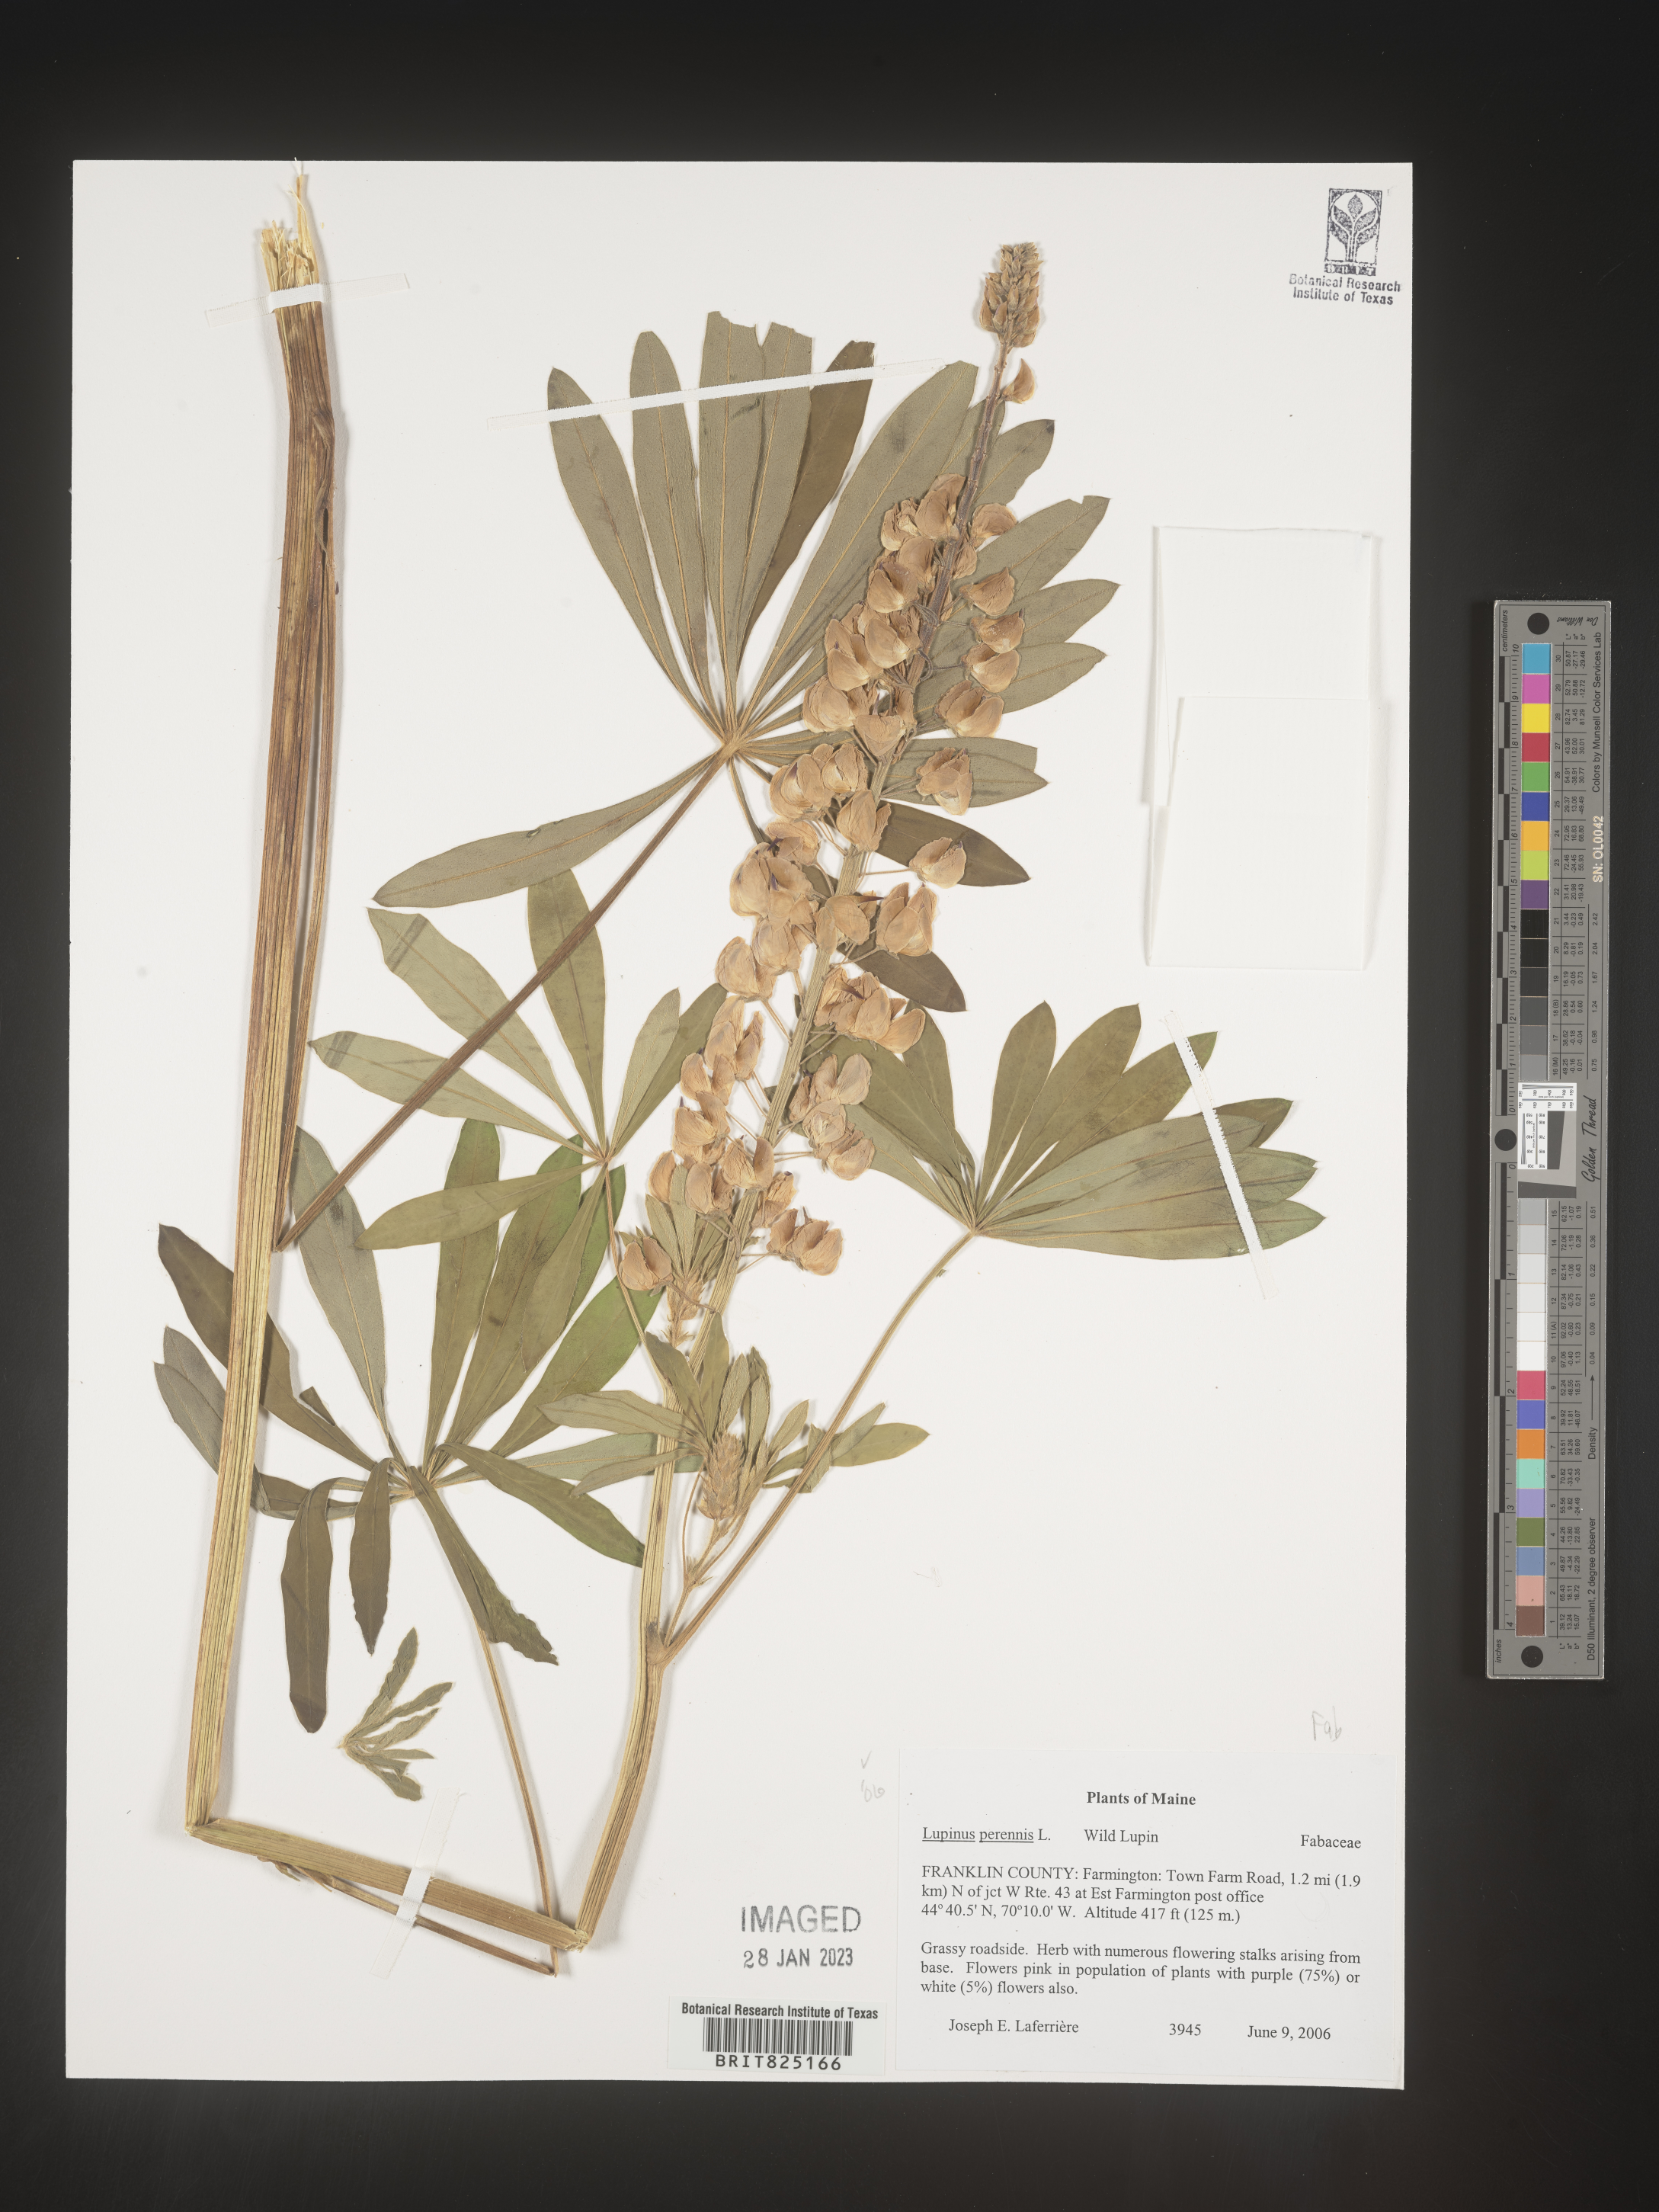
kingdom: Plantae
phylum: Tracheophyta
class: Magnoliopsida
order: Fabales
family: Fabaceae
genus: Lupinus
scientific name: Lupinus perennis
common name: Sundial lupine
